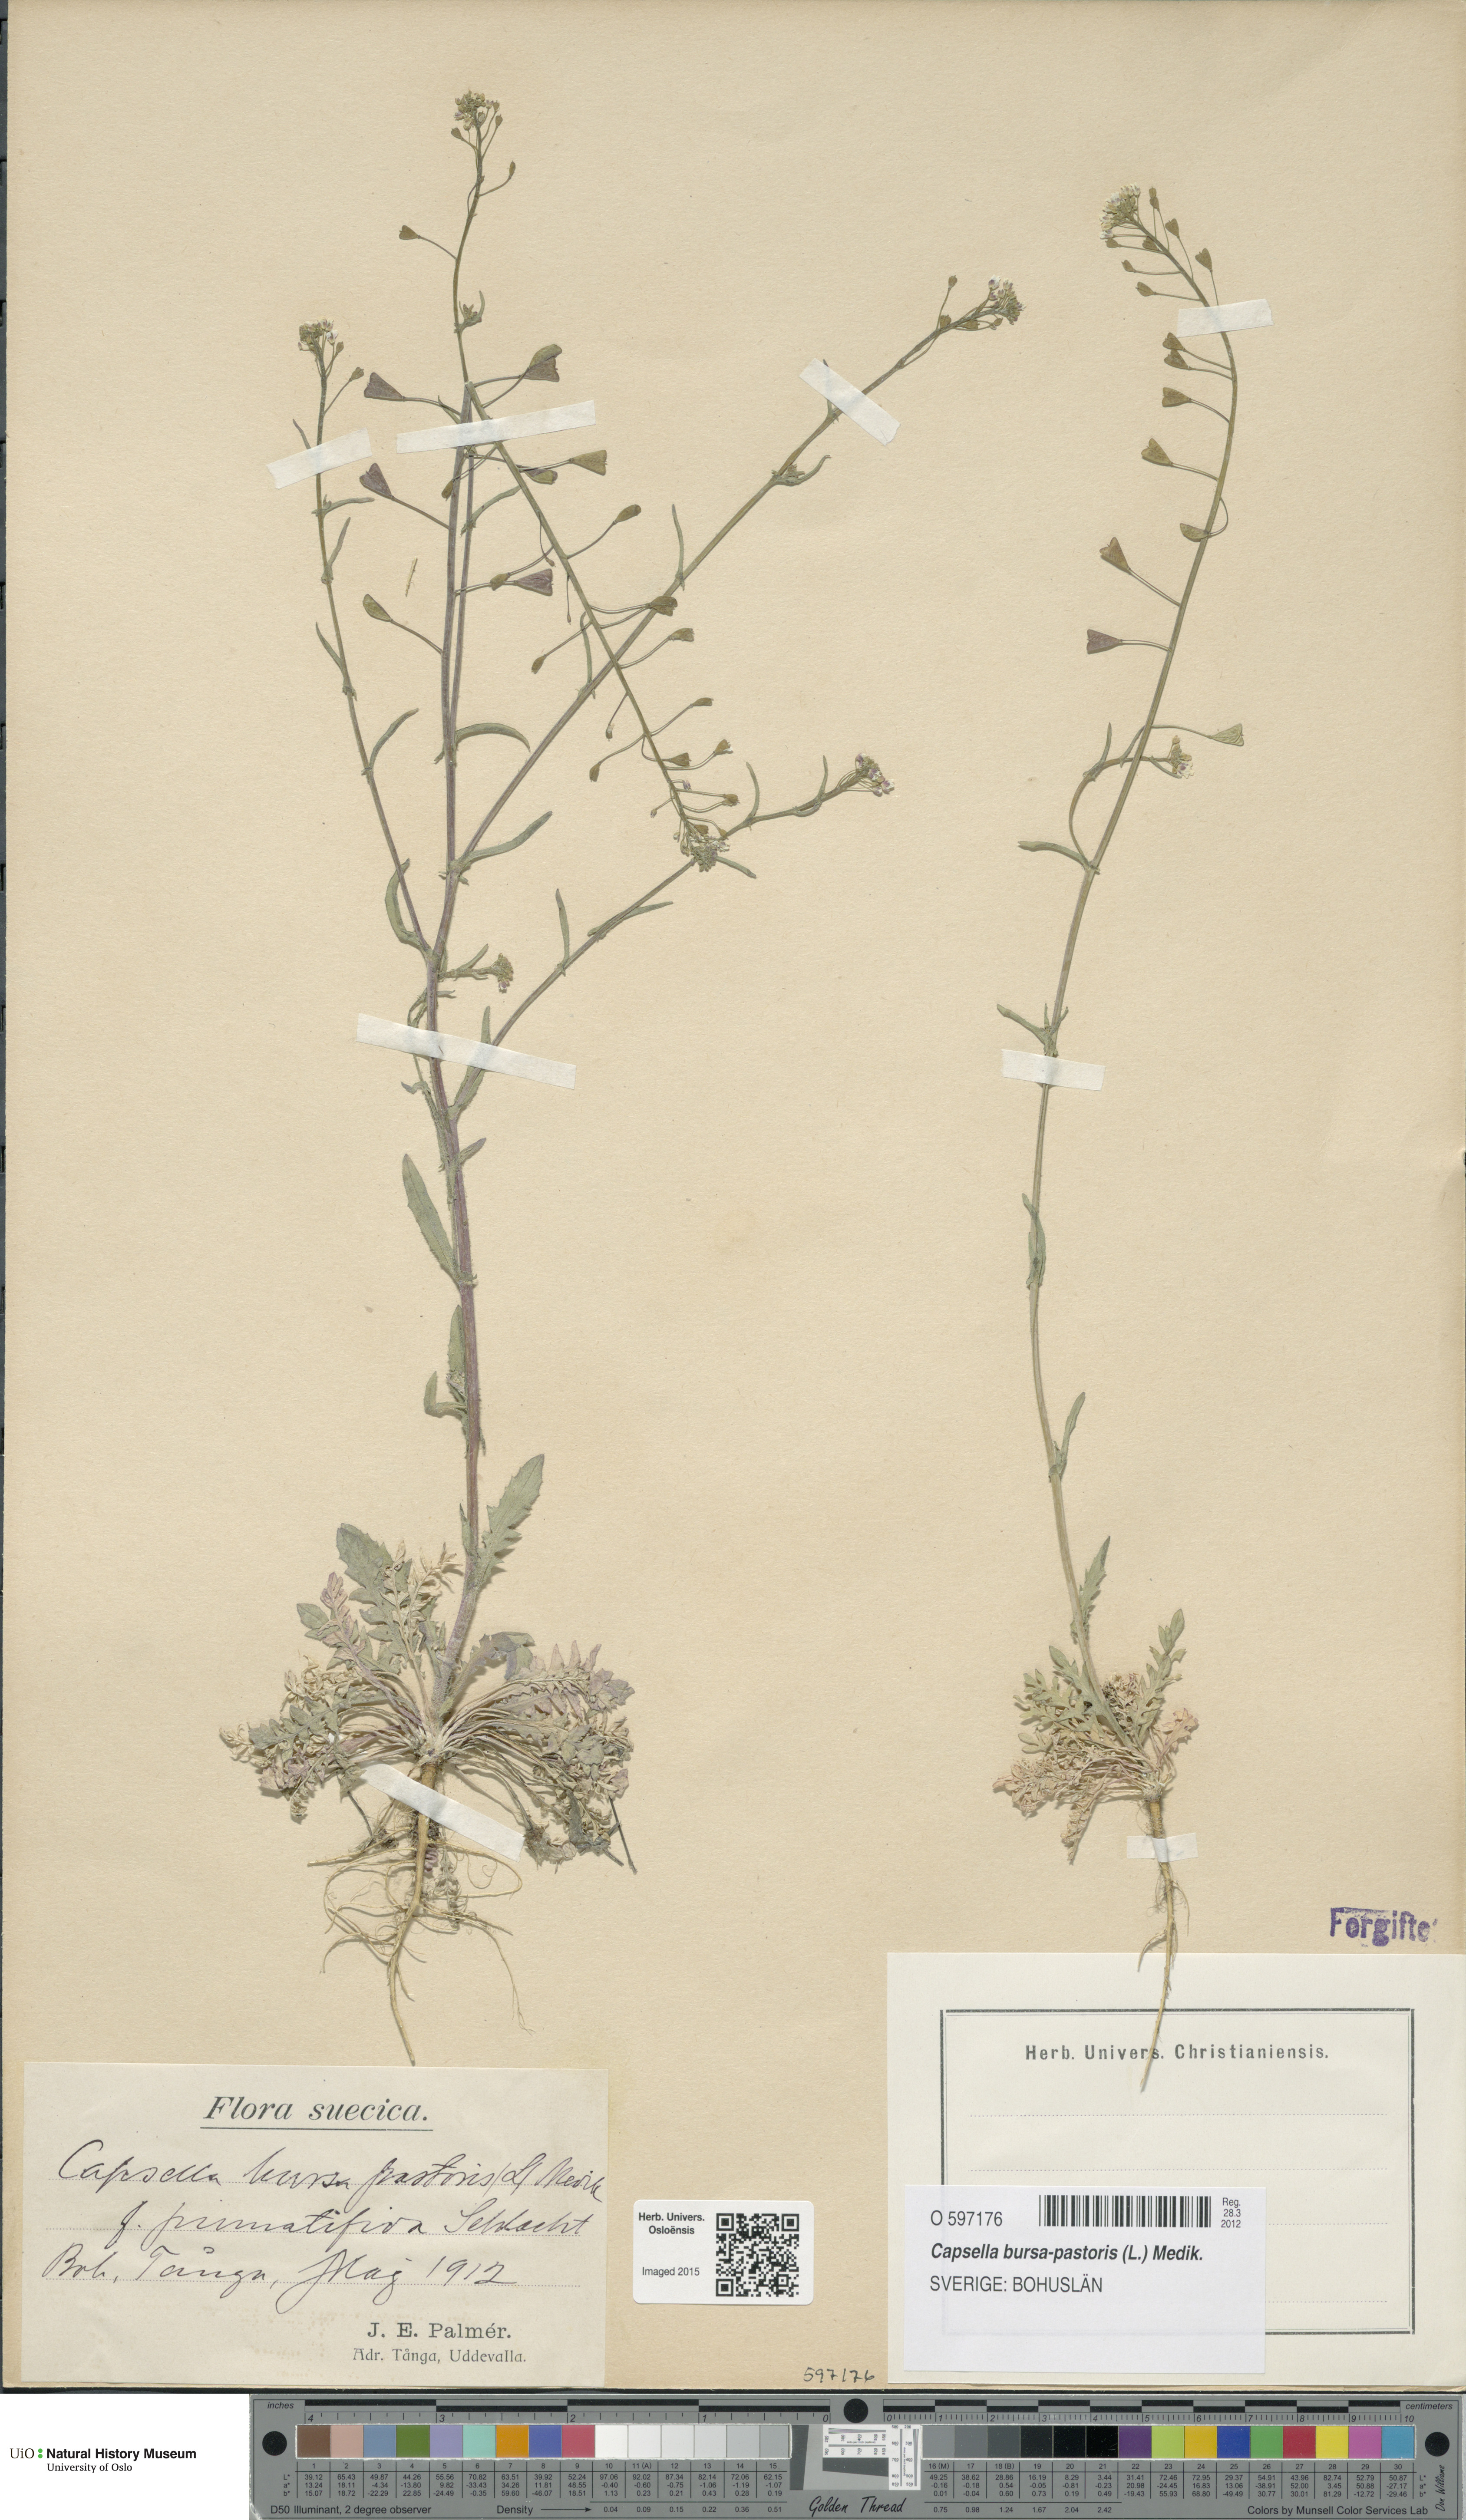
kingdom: Plantae
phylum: Tracheophyta
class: Magnoliopsida
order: Brassicales
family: Brassicaceae
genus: Capsella
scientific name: Capsella bursa-pastoris
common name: Shepherd's purse
